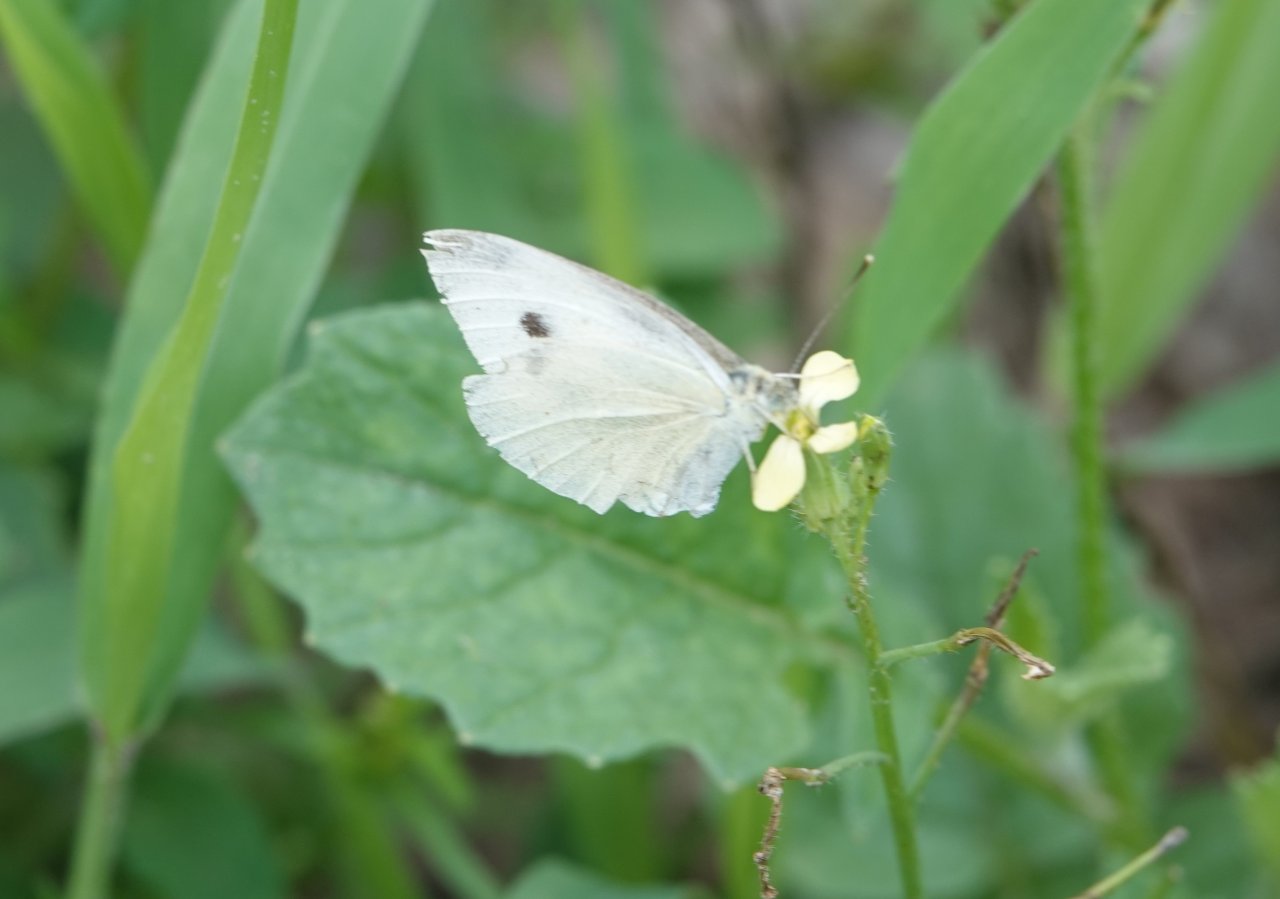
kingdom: Animalia
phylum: Arthropoda
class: Insecta
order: Lepidoptera
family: Pieridae
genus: Pieris
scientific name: Pieris rapae
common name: Cabbage White
